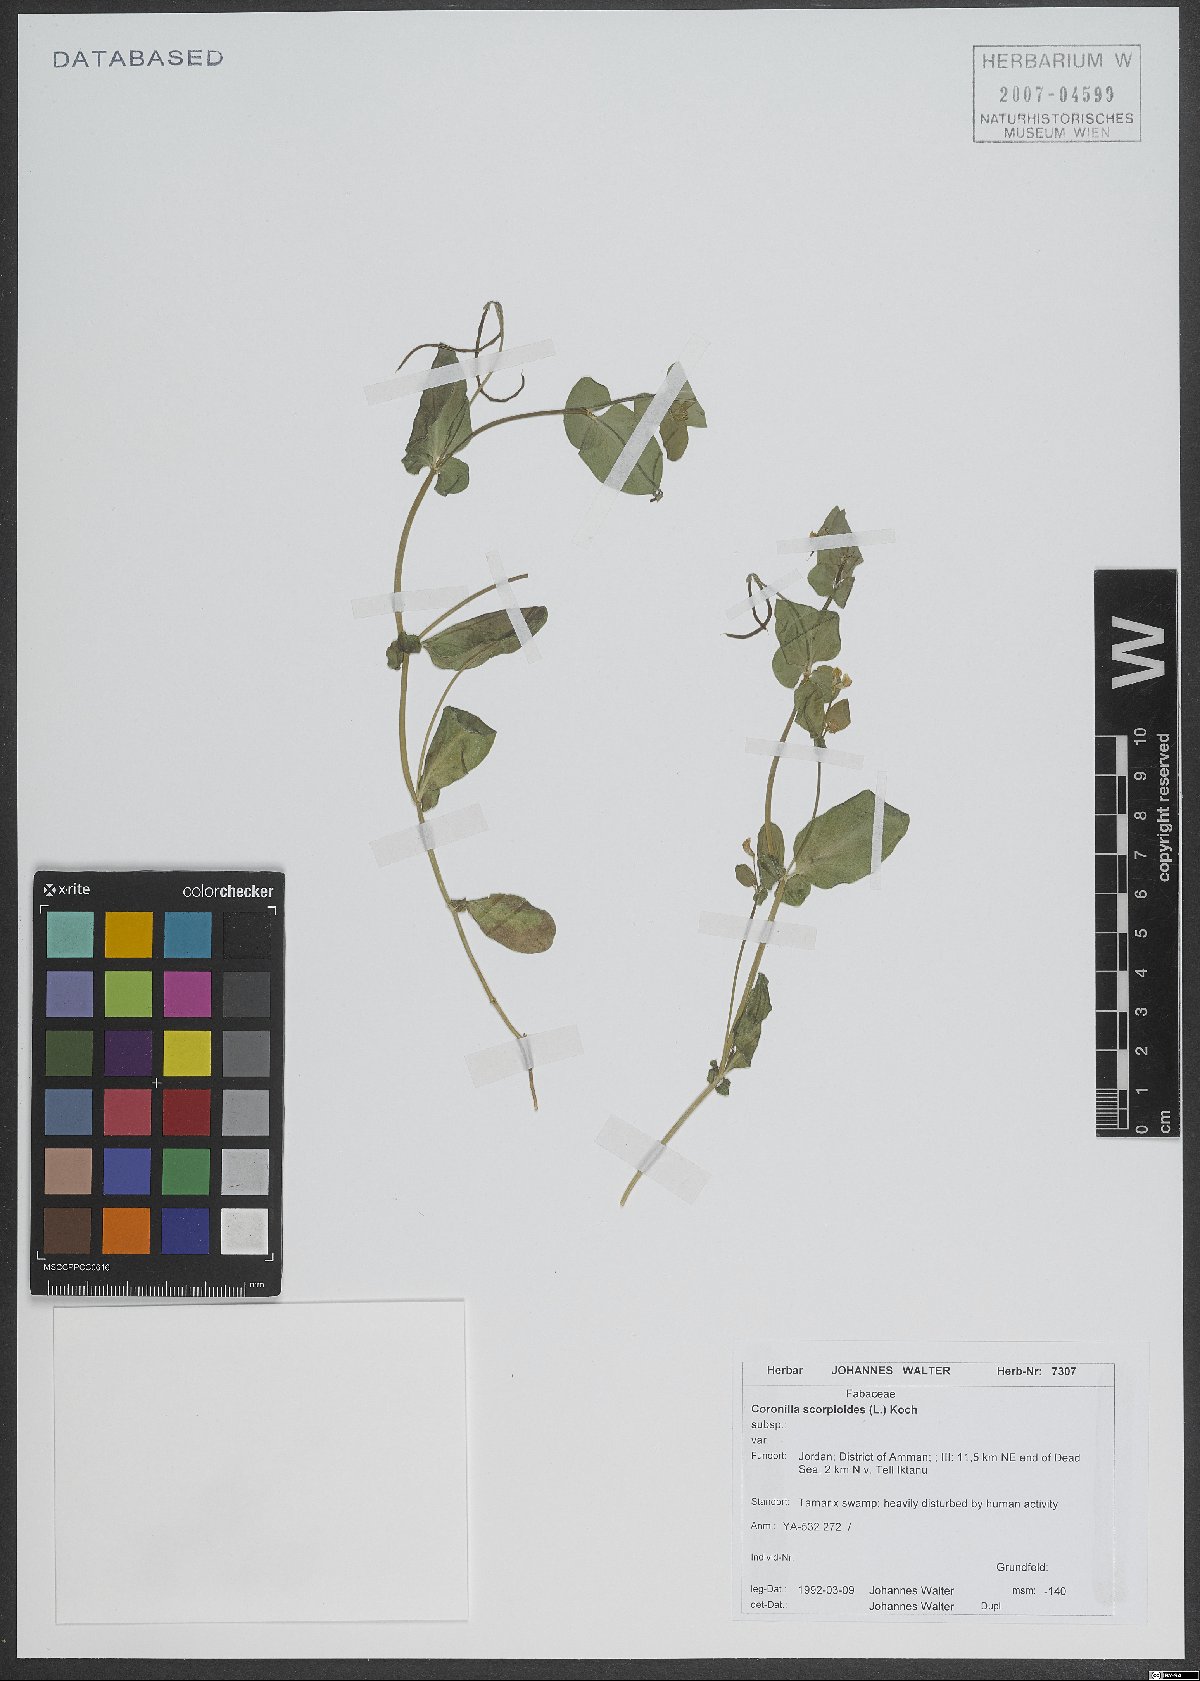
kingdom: Plantae
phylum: Tracheophyta
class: Magnoliopsida
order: Fabales
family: Fabaceae
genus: Coronilla
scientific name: Coronilla scorpioides
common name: Annual scorpion-vetch
